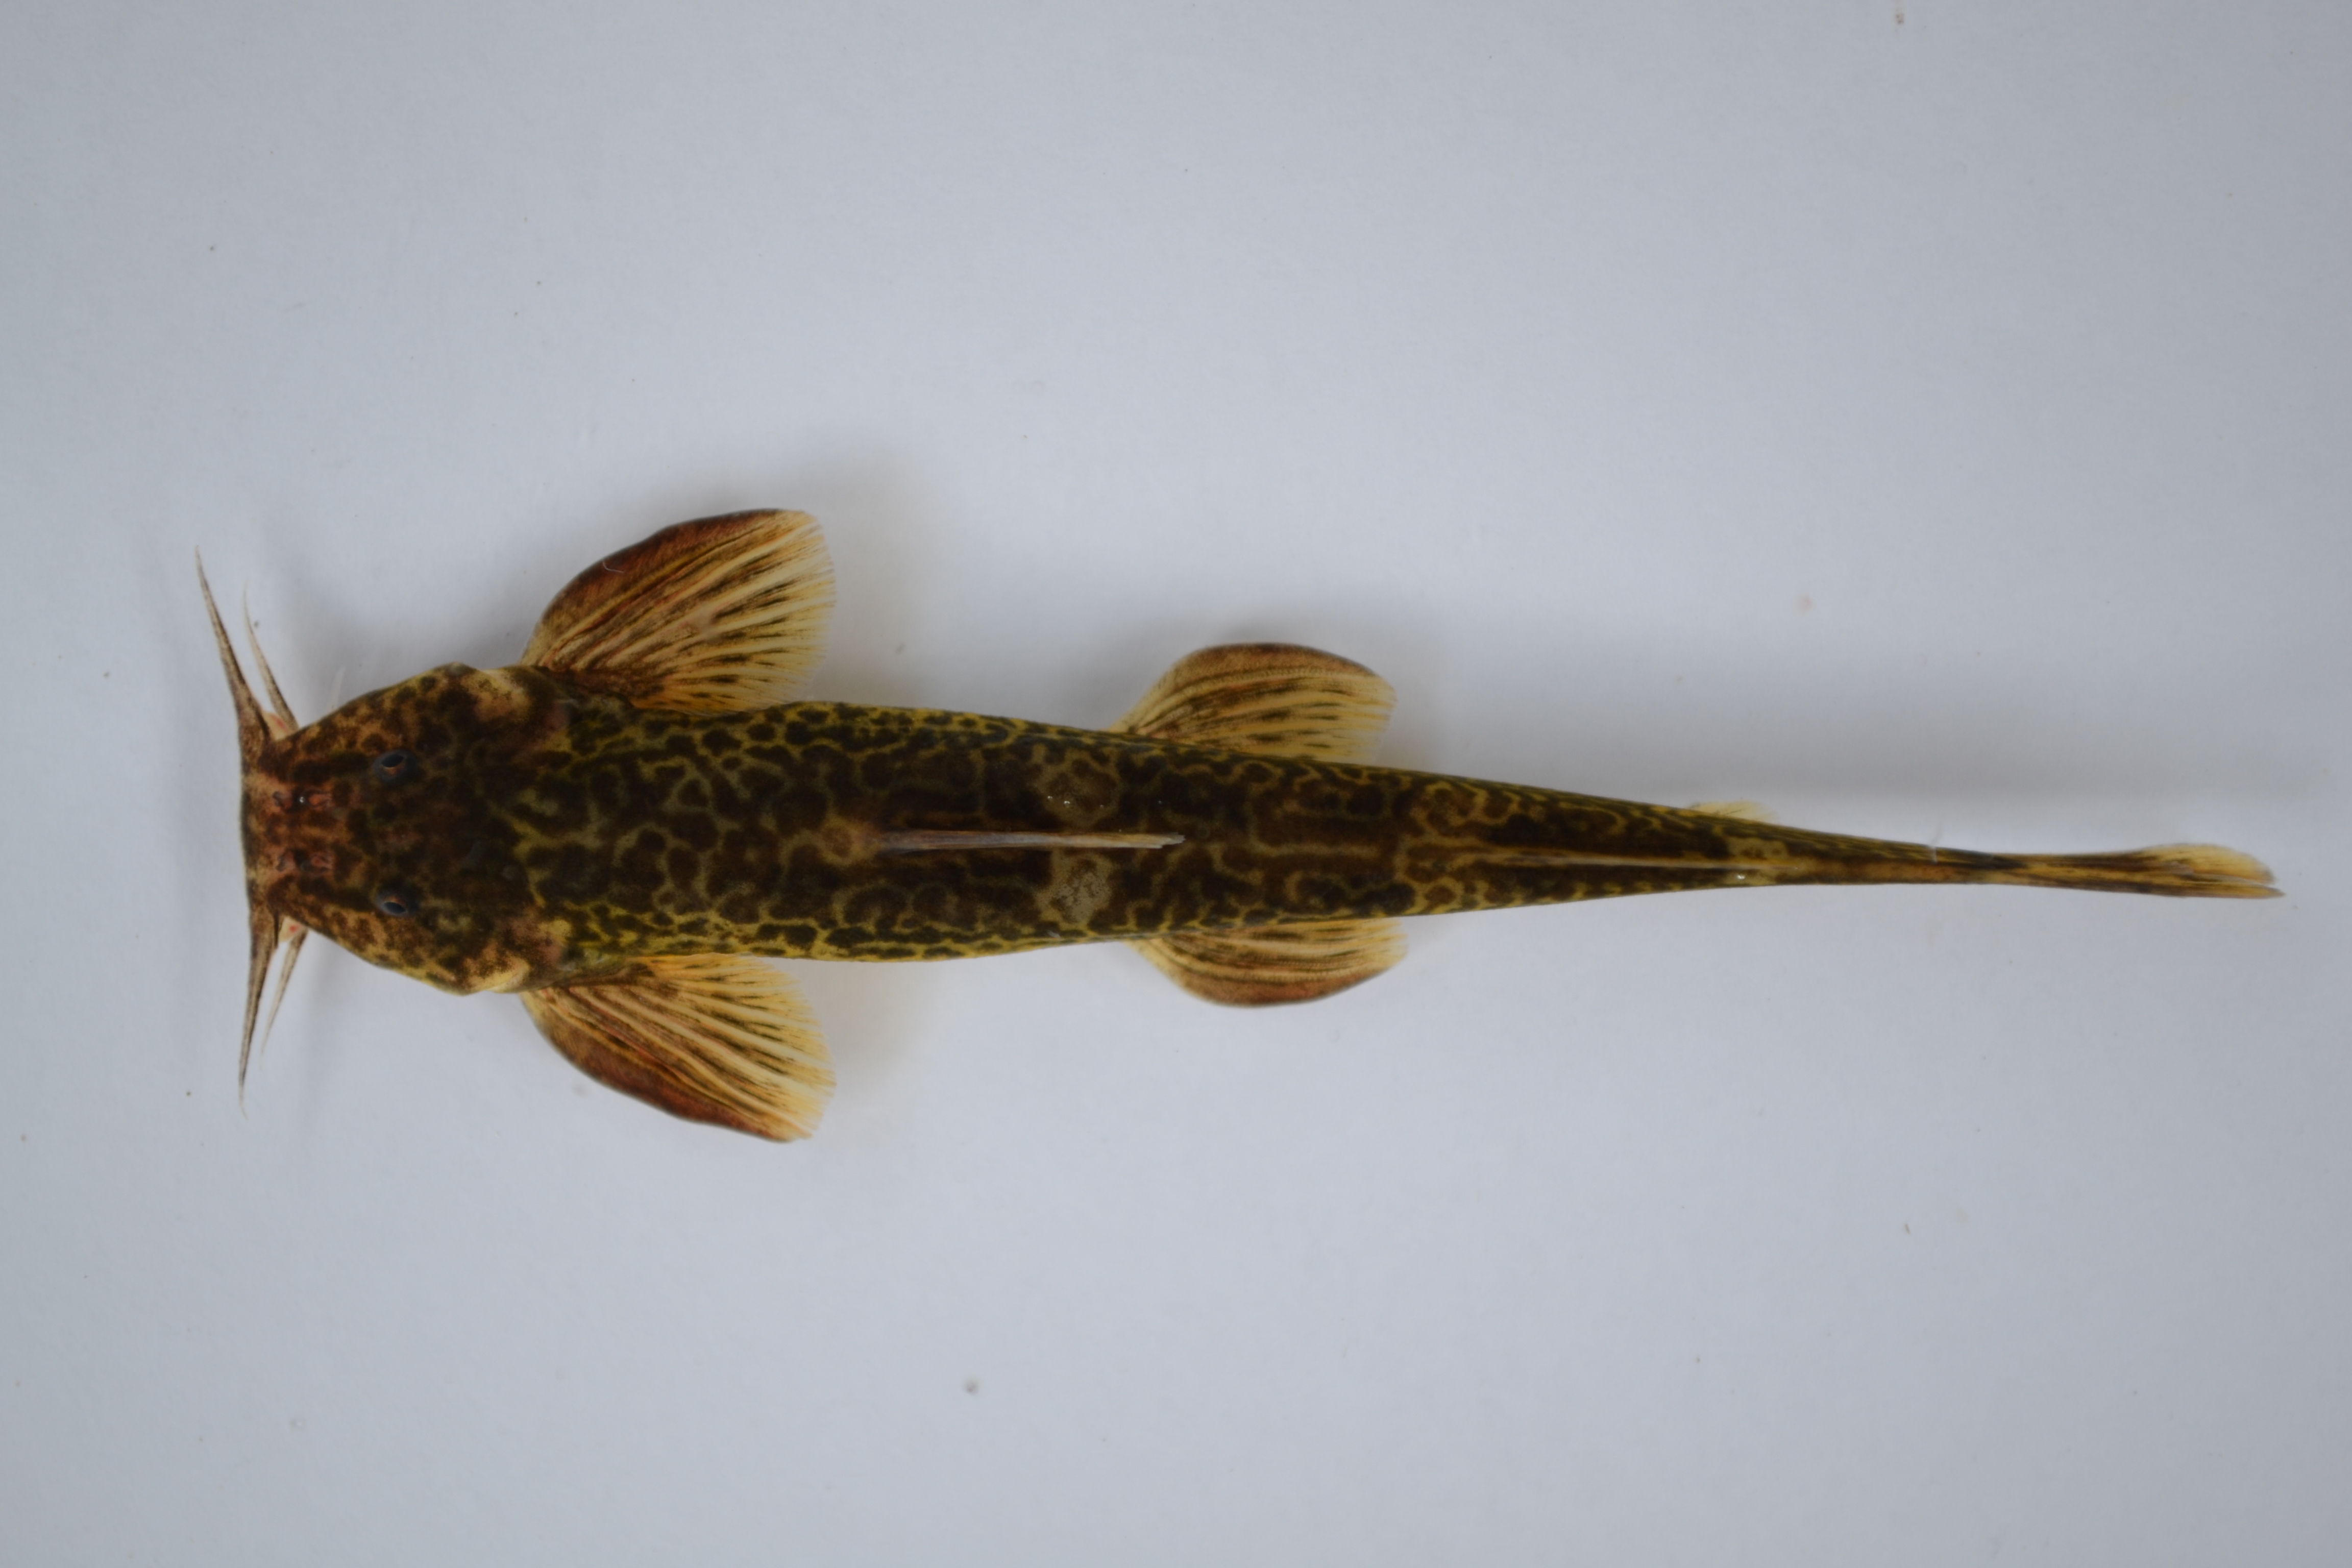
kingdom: Animalia
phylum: Chordata
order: Siluriformes
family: Amphiliidae
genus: Amphilius
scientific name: Amphilius marshalli
